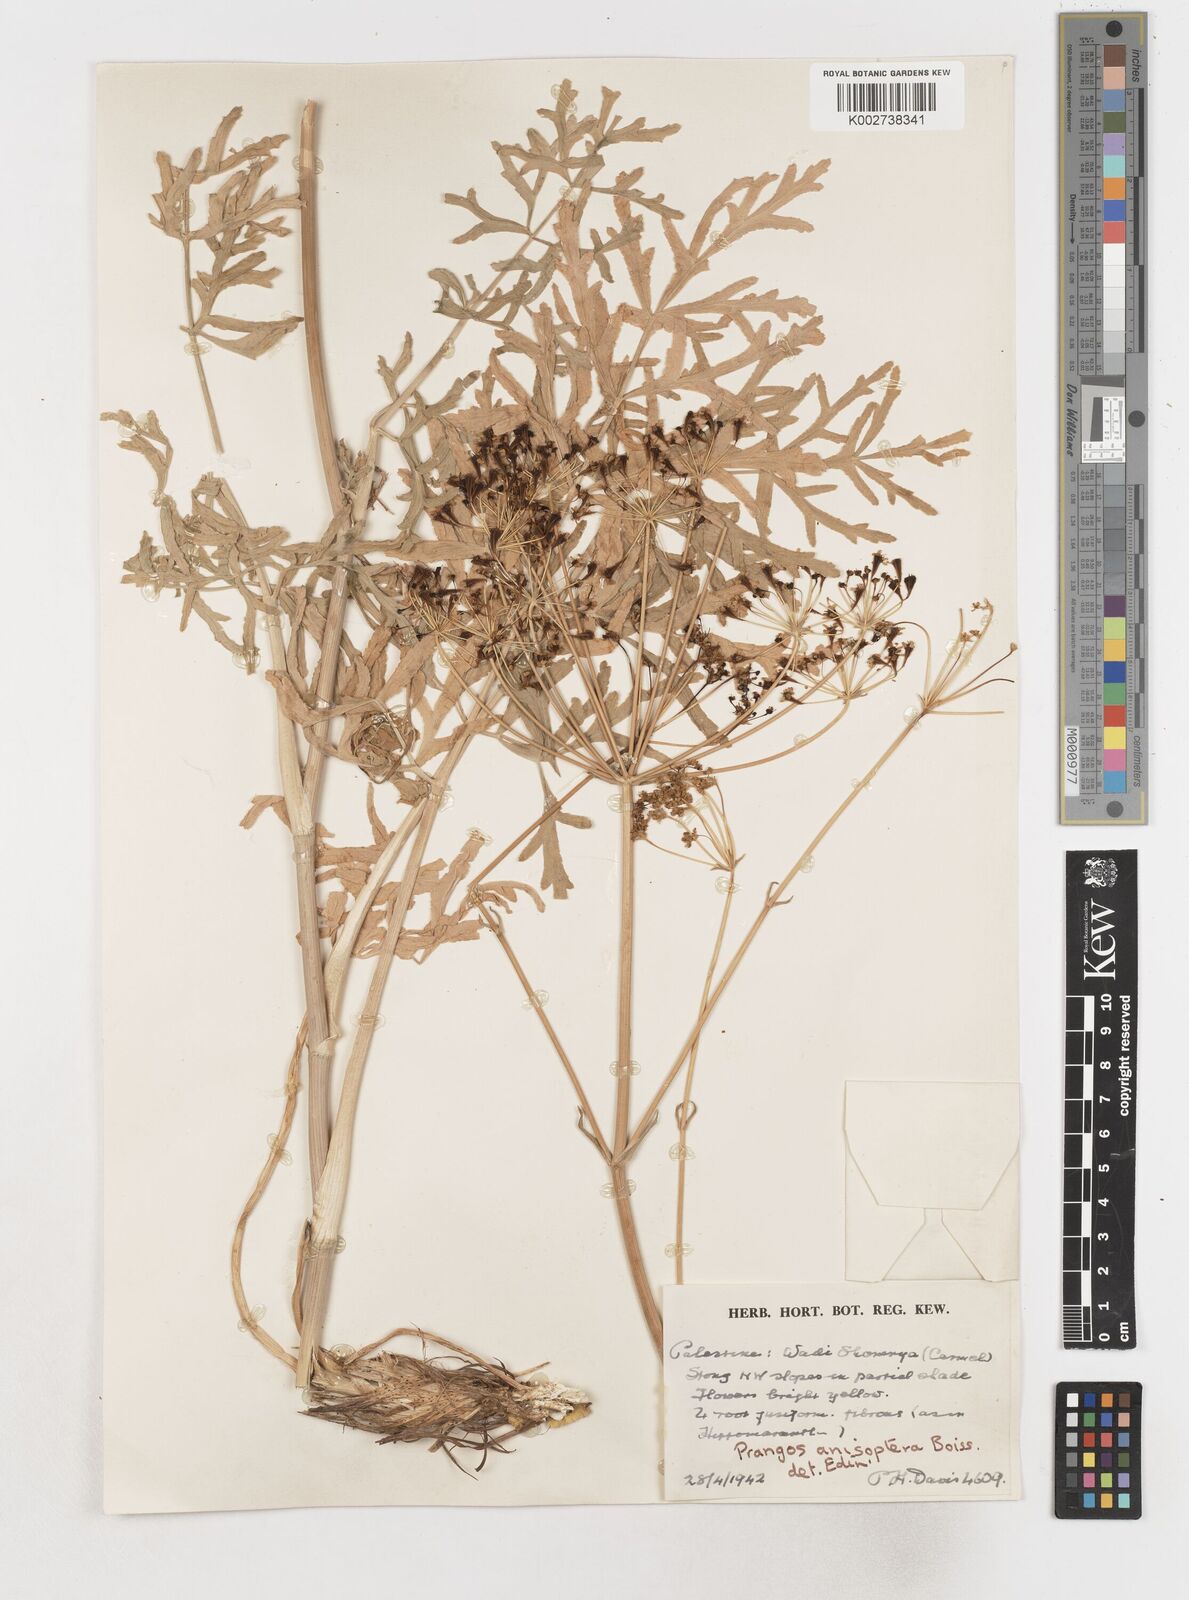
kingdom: Plantae
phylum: Tracheophyta
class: Magnoliopsida
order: Apiales
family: Apiaceae
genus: Heptaptera
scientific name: Heptaptera
